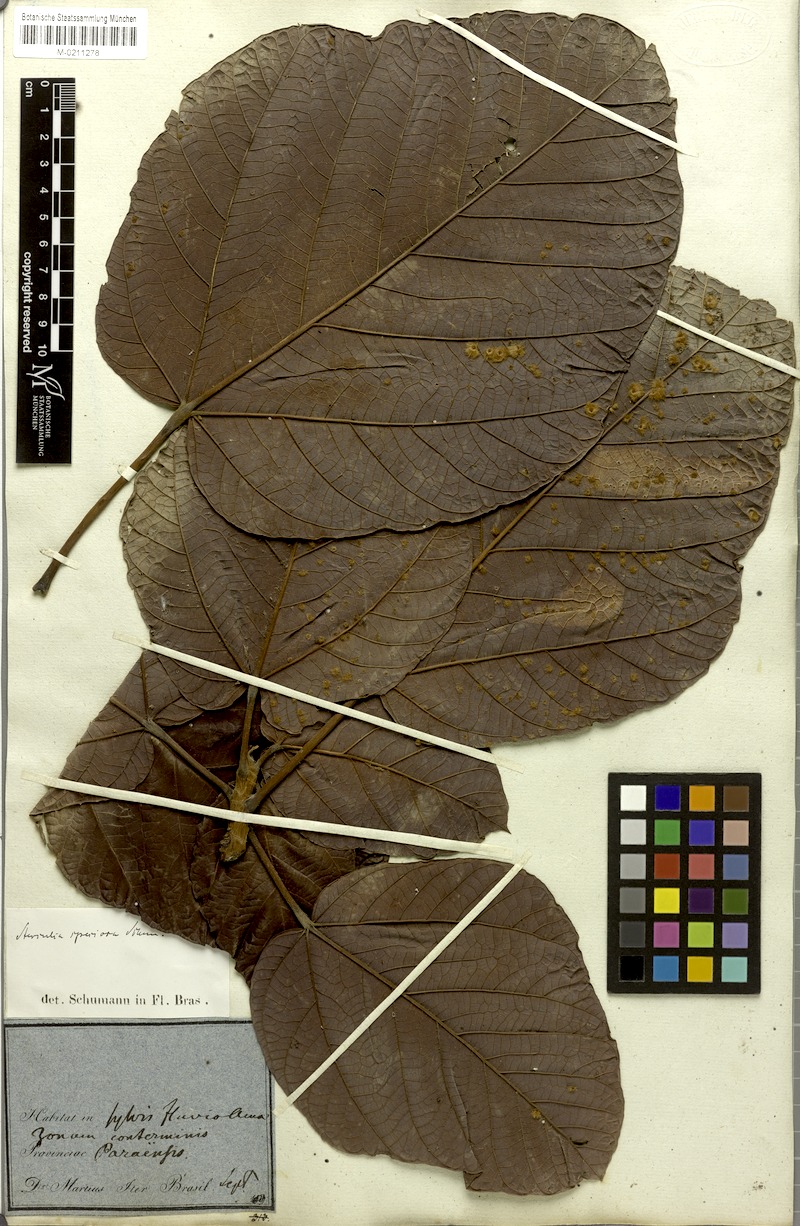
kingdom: Plantae
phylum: Tracheophyta
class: Magnoliopsida
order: Malvales
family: Malvaceae
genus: Sterculia
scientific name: Sterculia speciosa
